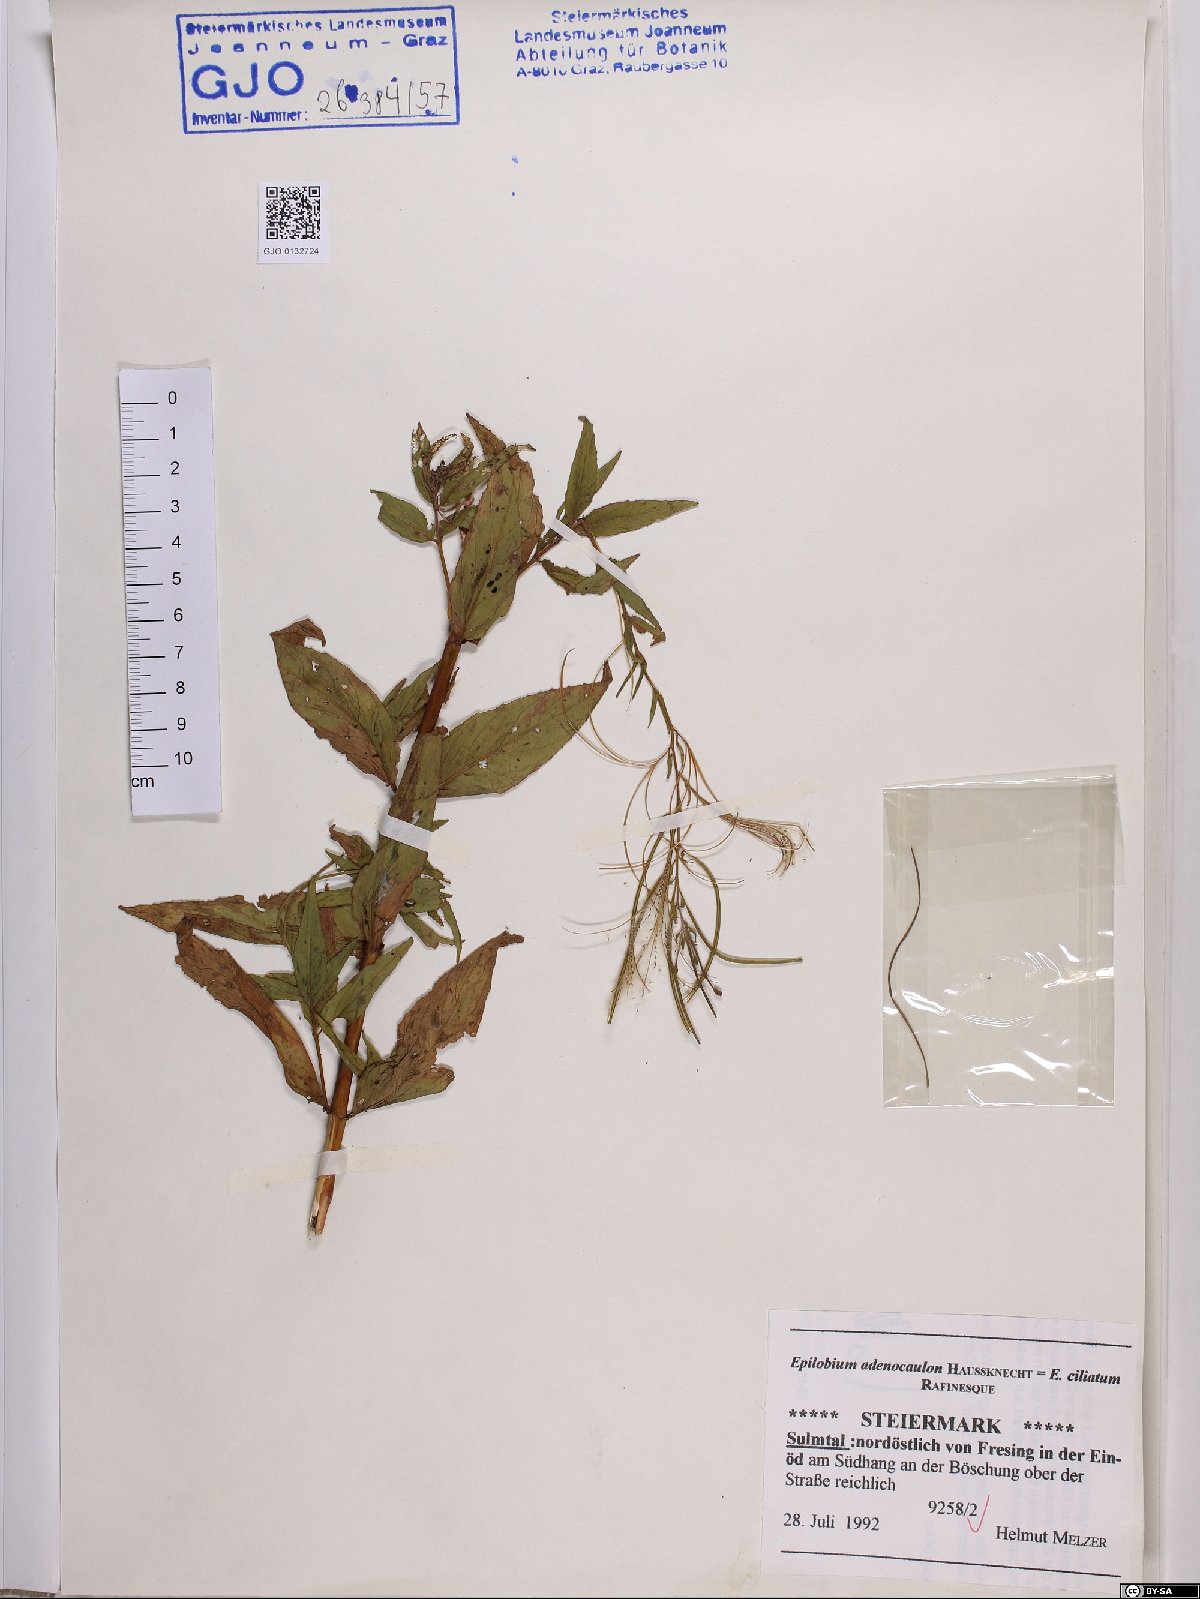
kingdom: Plantae
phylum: Tracheophyta
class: Magnoliopsida
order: Myrtales
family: Onagraceae
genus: Epilobium
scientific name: Epilobium ciliatum
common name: American willowherb
